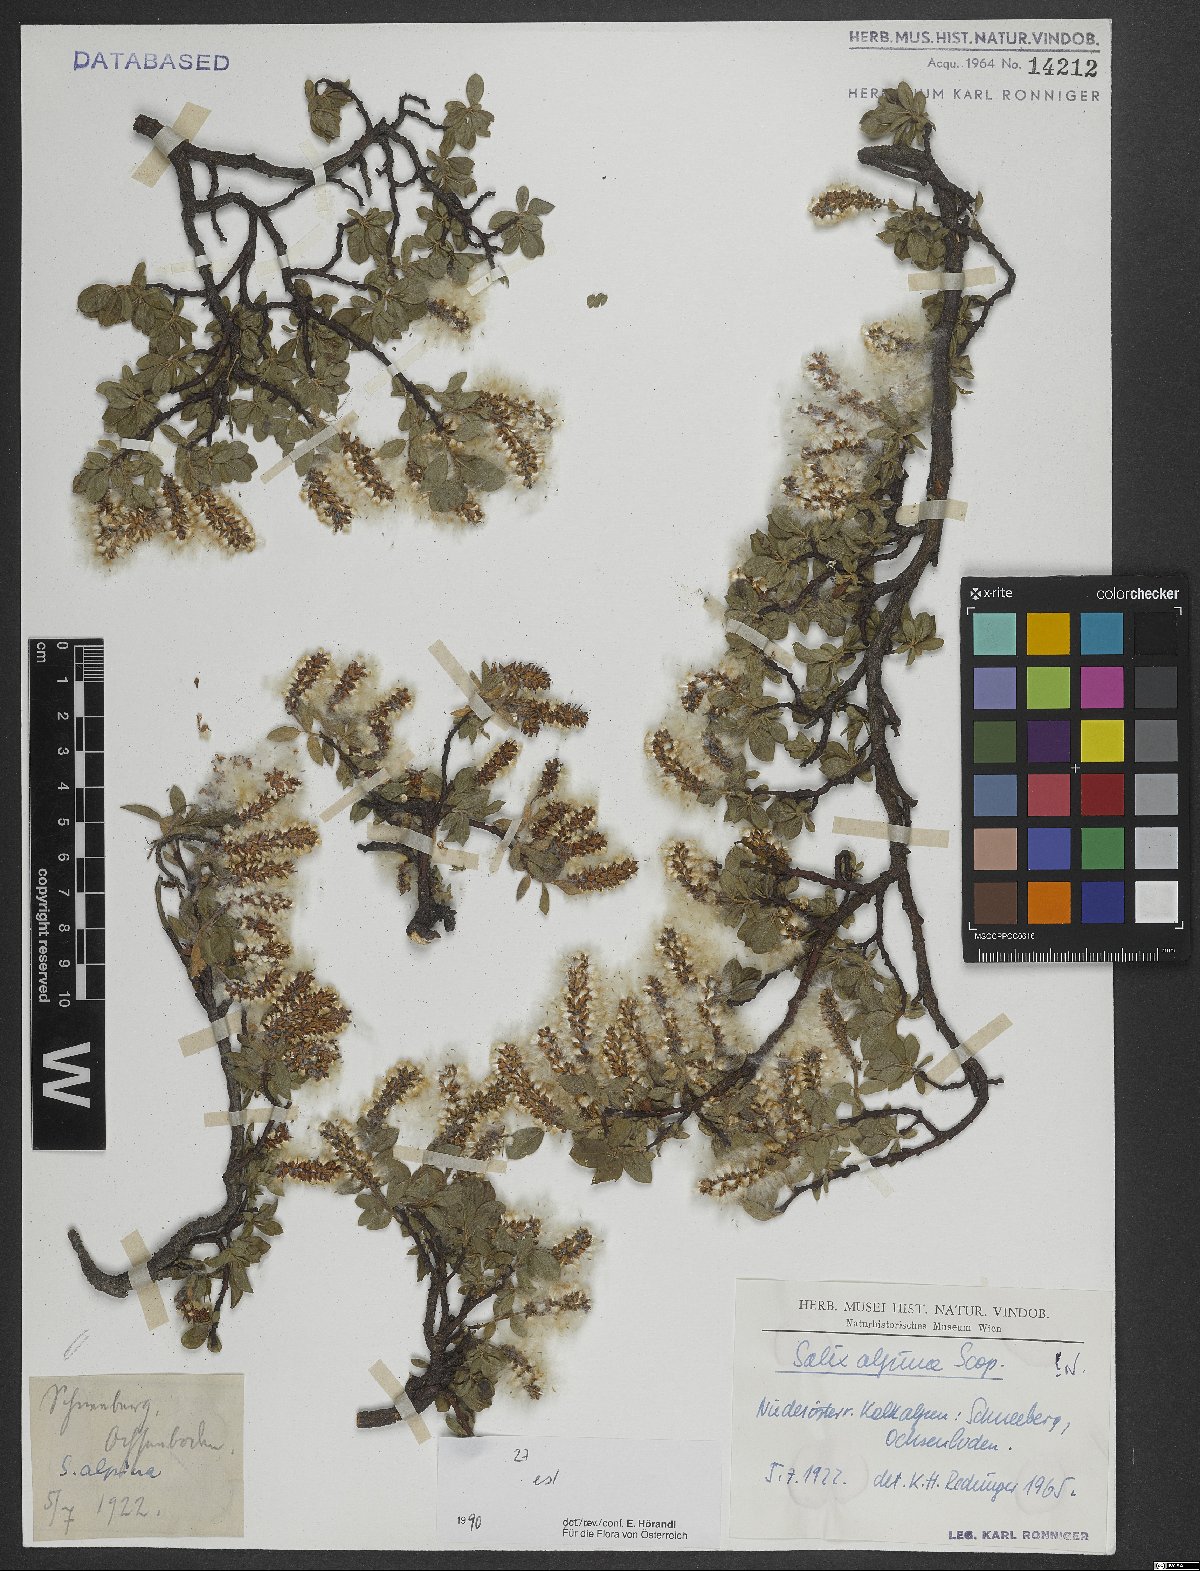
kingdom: Plantae
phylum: Tracheophyta
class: Magnoliopsida
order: Malpighiales
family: Salicaceae
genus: Salix
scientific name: Salix alpina
